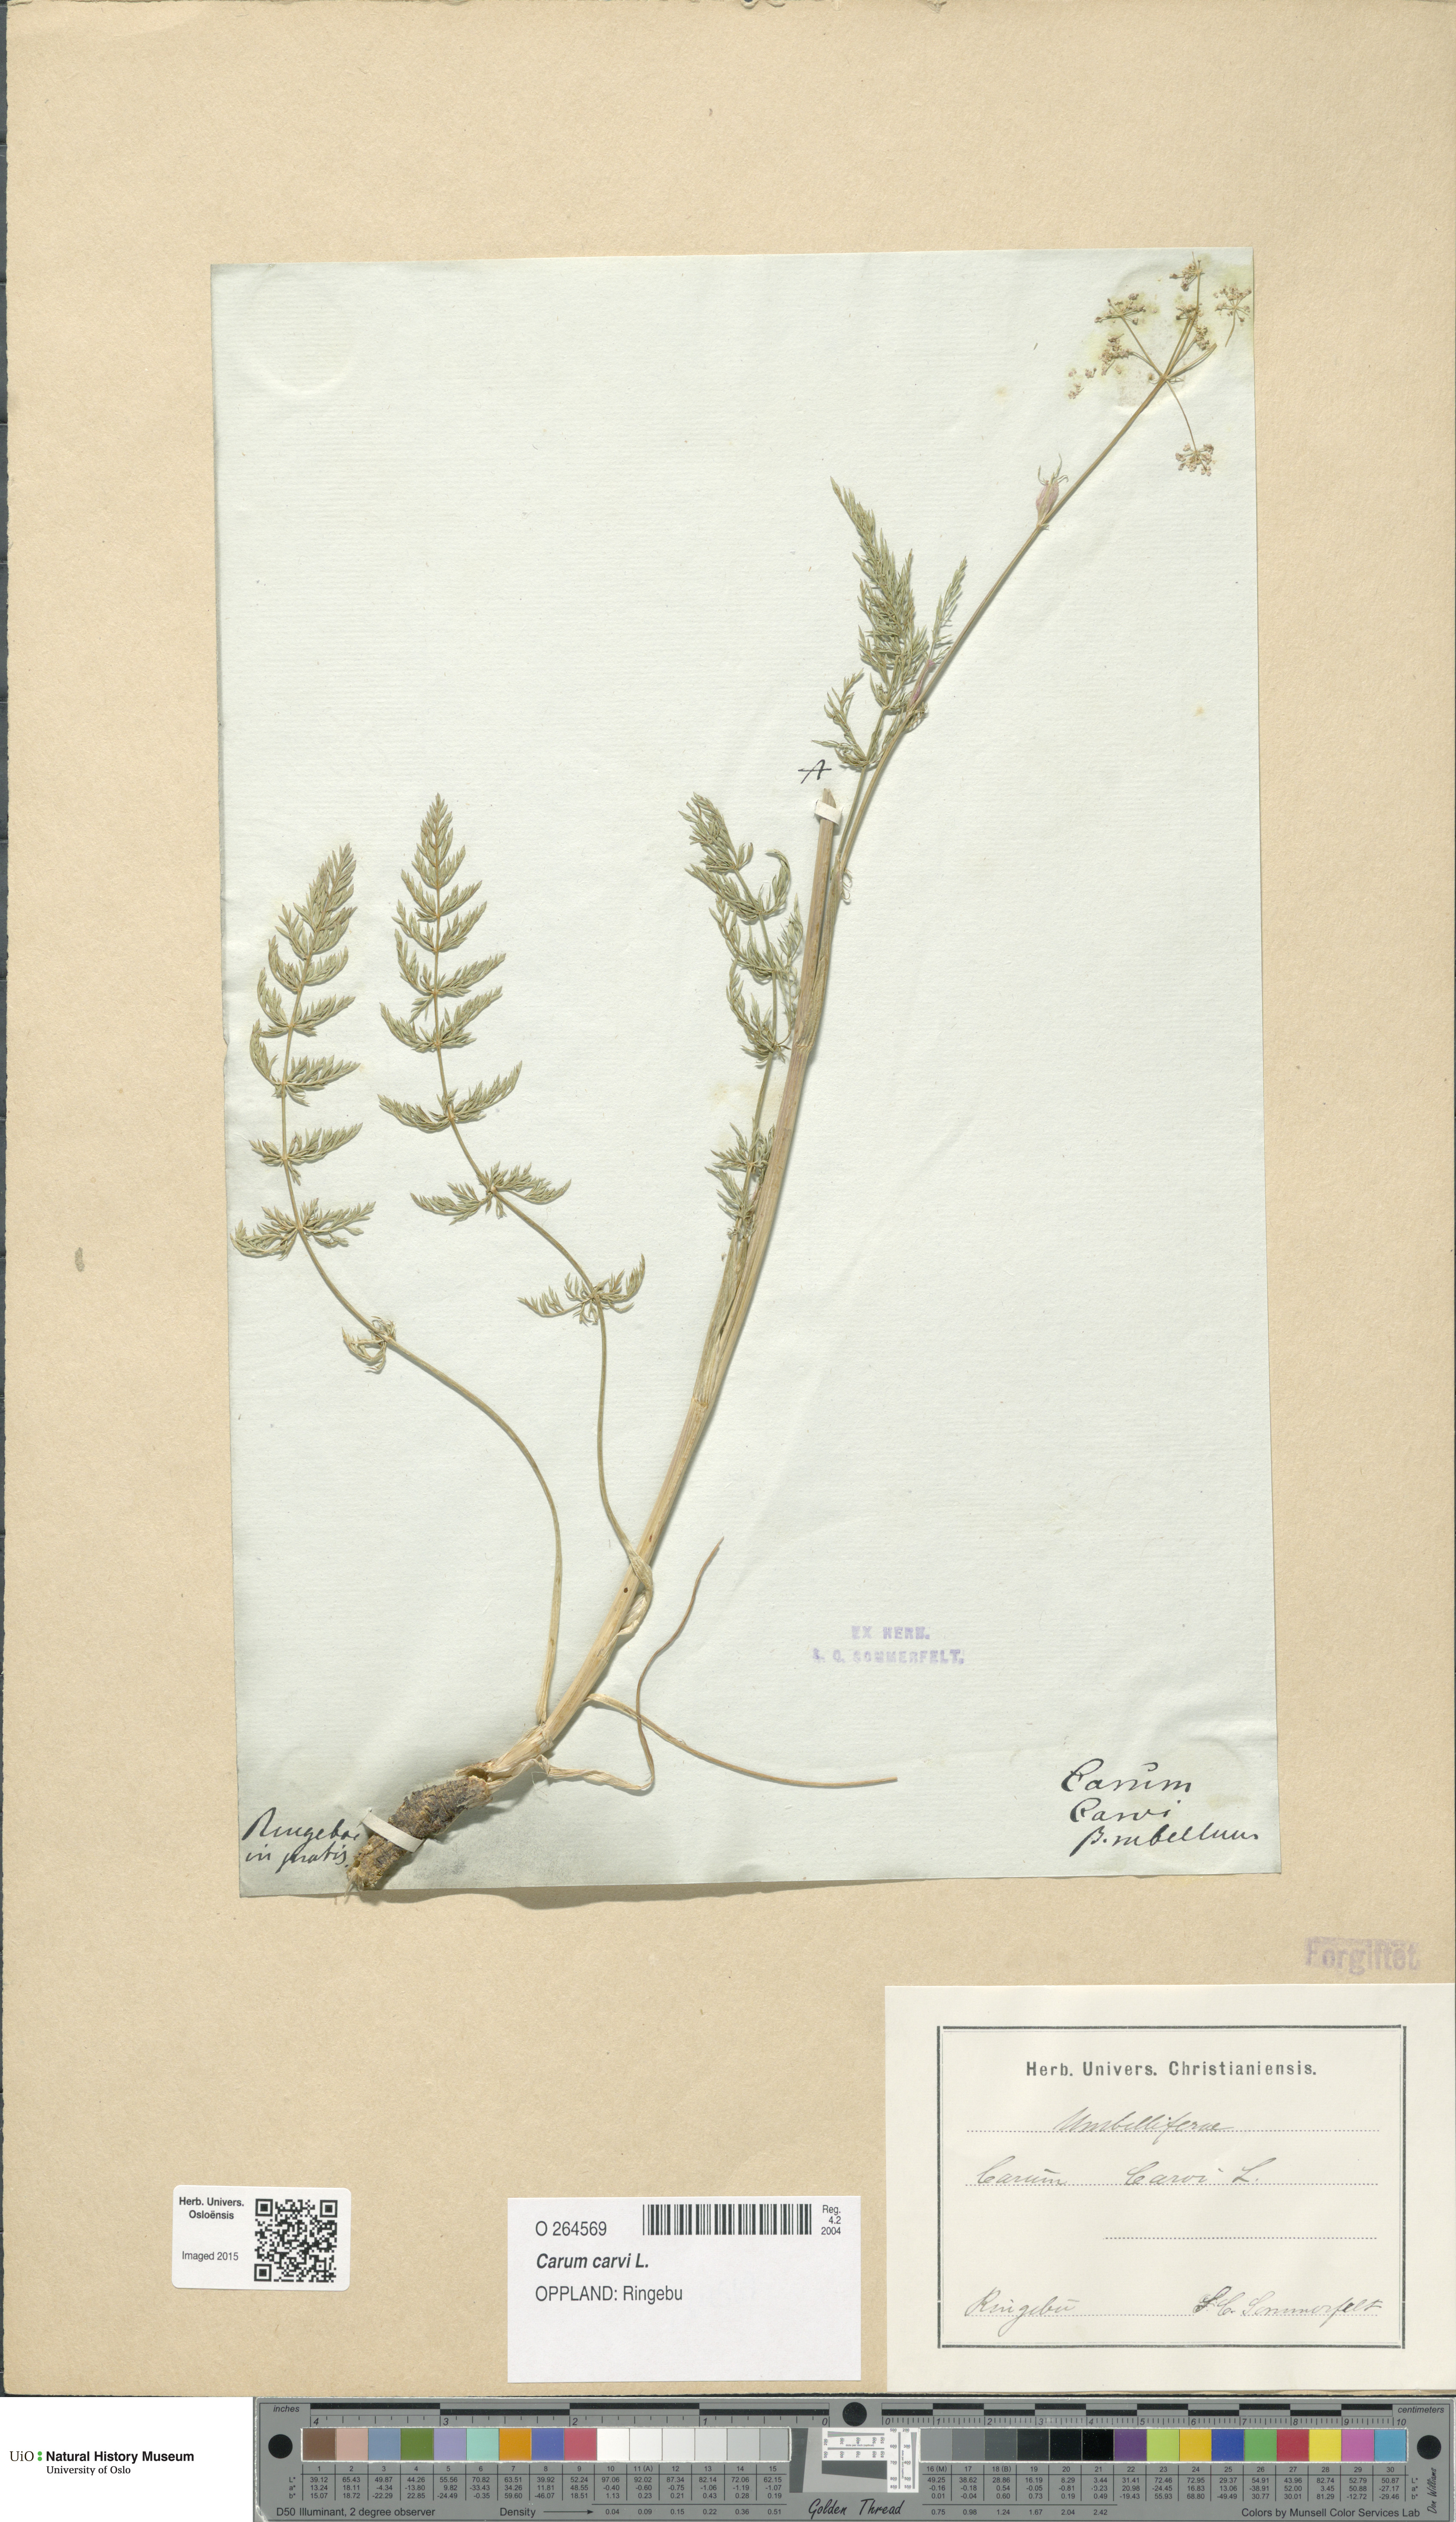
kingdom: Plantae
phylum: Tracheophyta
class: Magnoliopsida
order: Apiales
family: Apiaceae
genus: Carum
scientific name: Carum carvi
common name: Caraway
